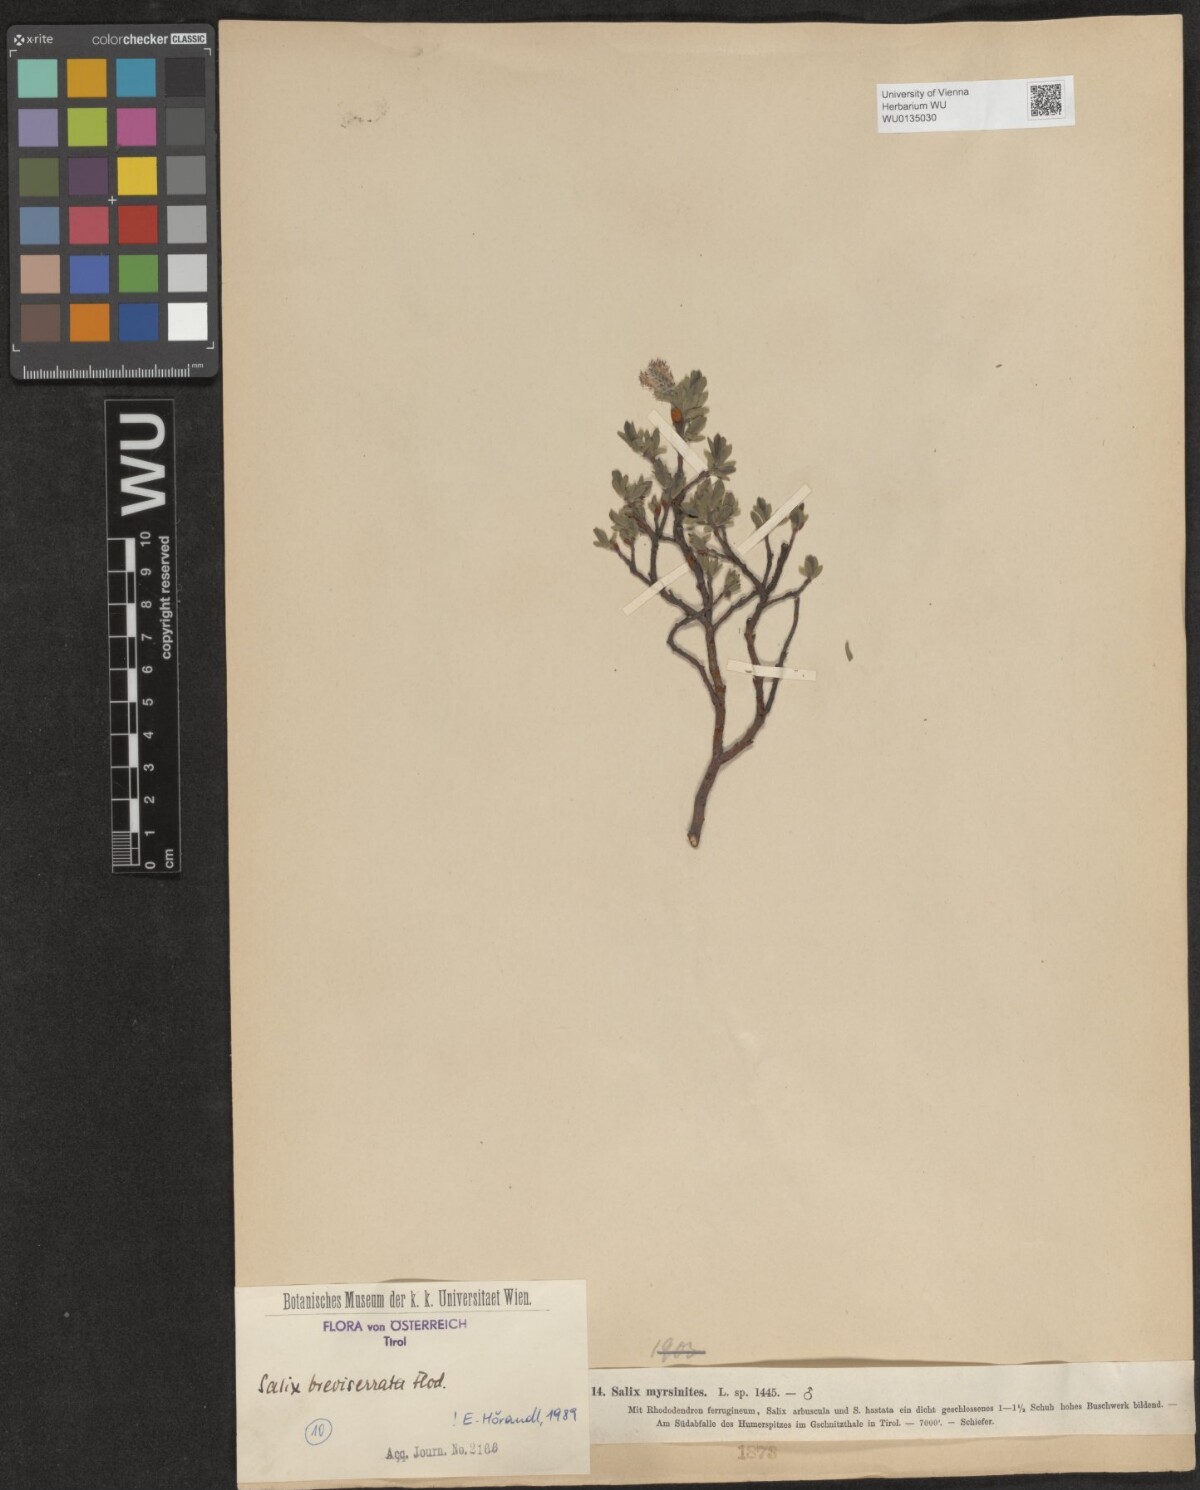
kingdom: Plantae
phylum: Tracheophyta
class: Magnoliopsida
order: Malpighiales
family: Salicaceae
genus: Salix
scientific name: Salix breviserrata
